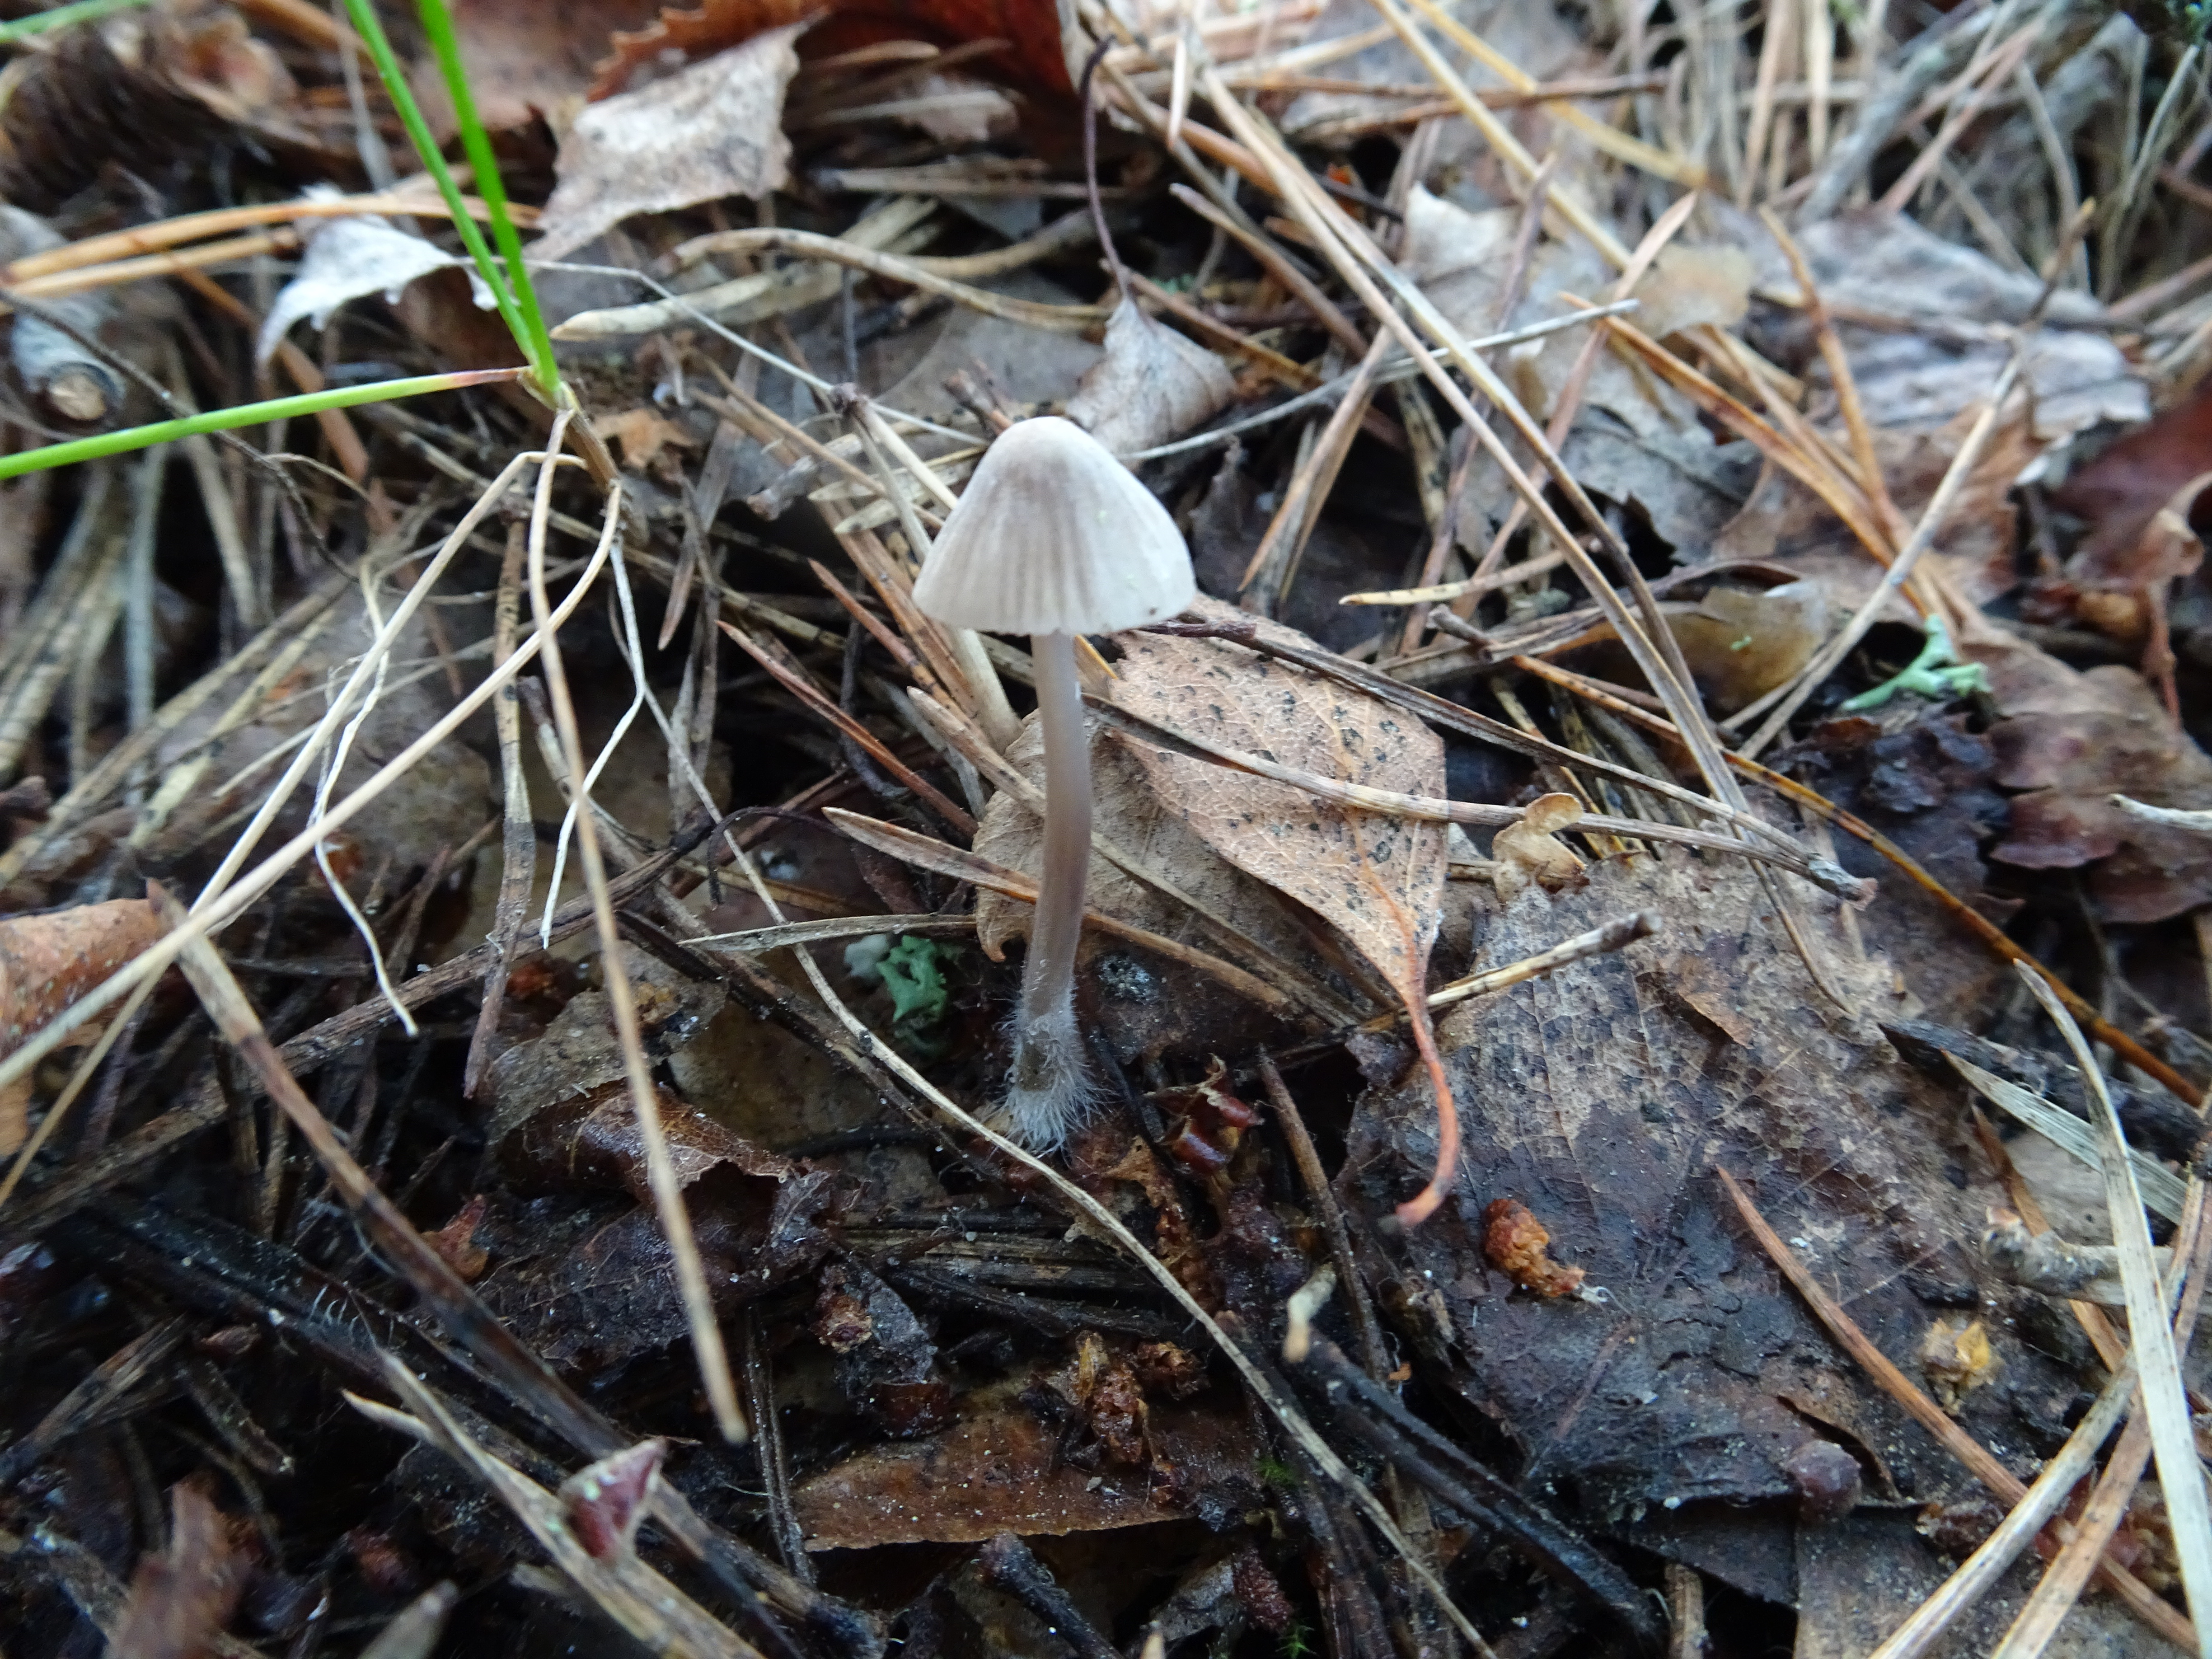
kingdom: Fungi
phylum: Basidiomycota
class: Agaricomycetes
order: Agaricales
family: Mycenaceae
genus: Mycena
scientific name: Mycena leptocephala
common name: Nitrous bonnet
